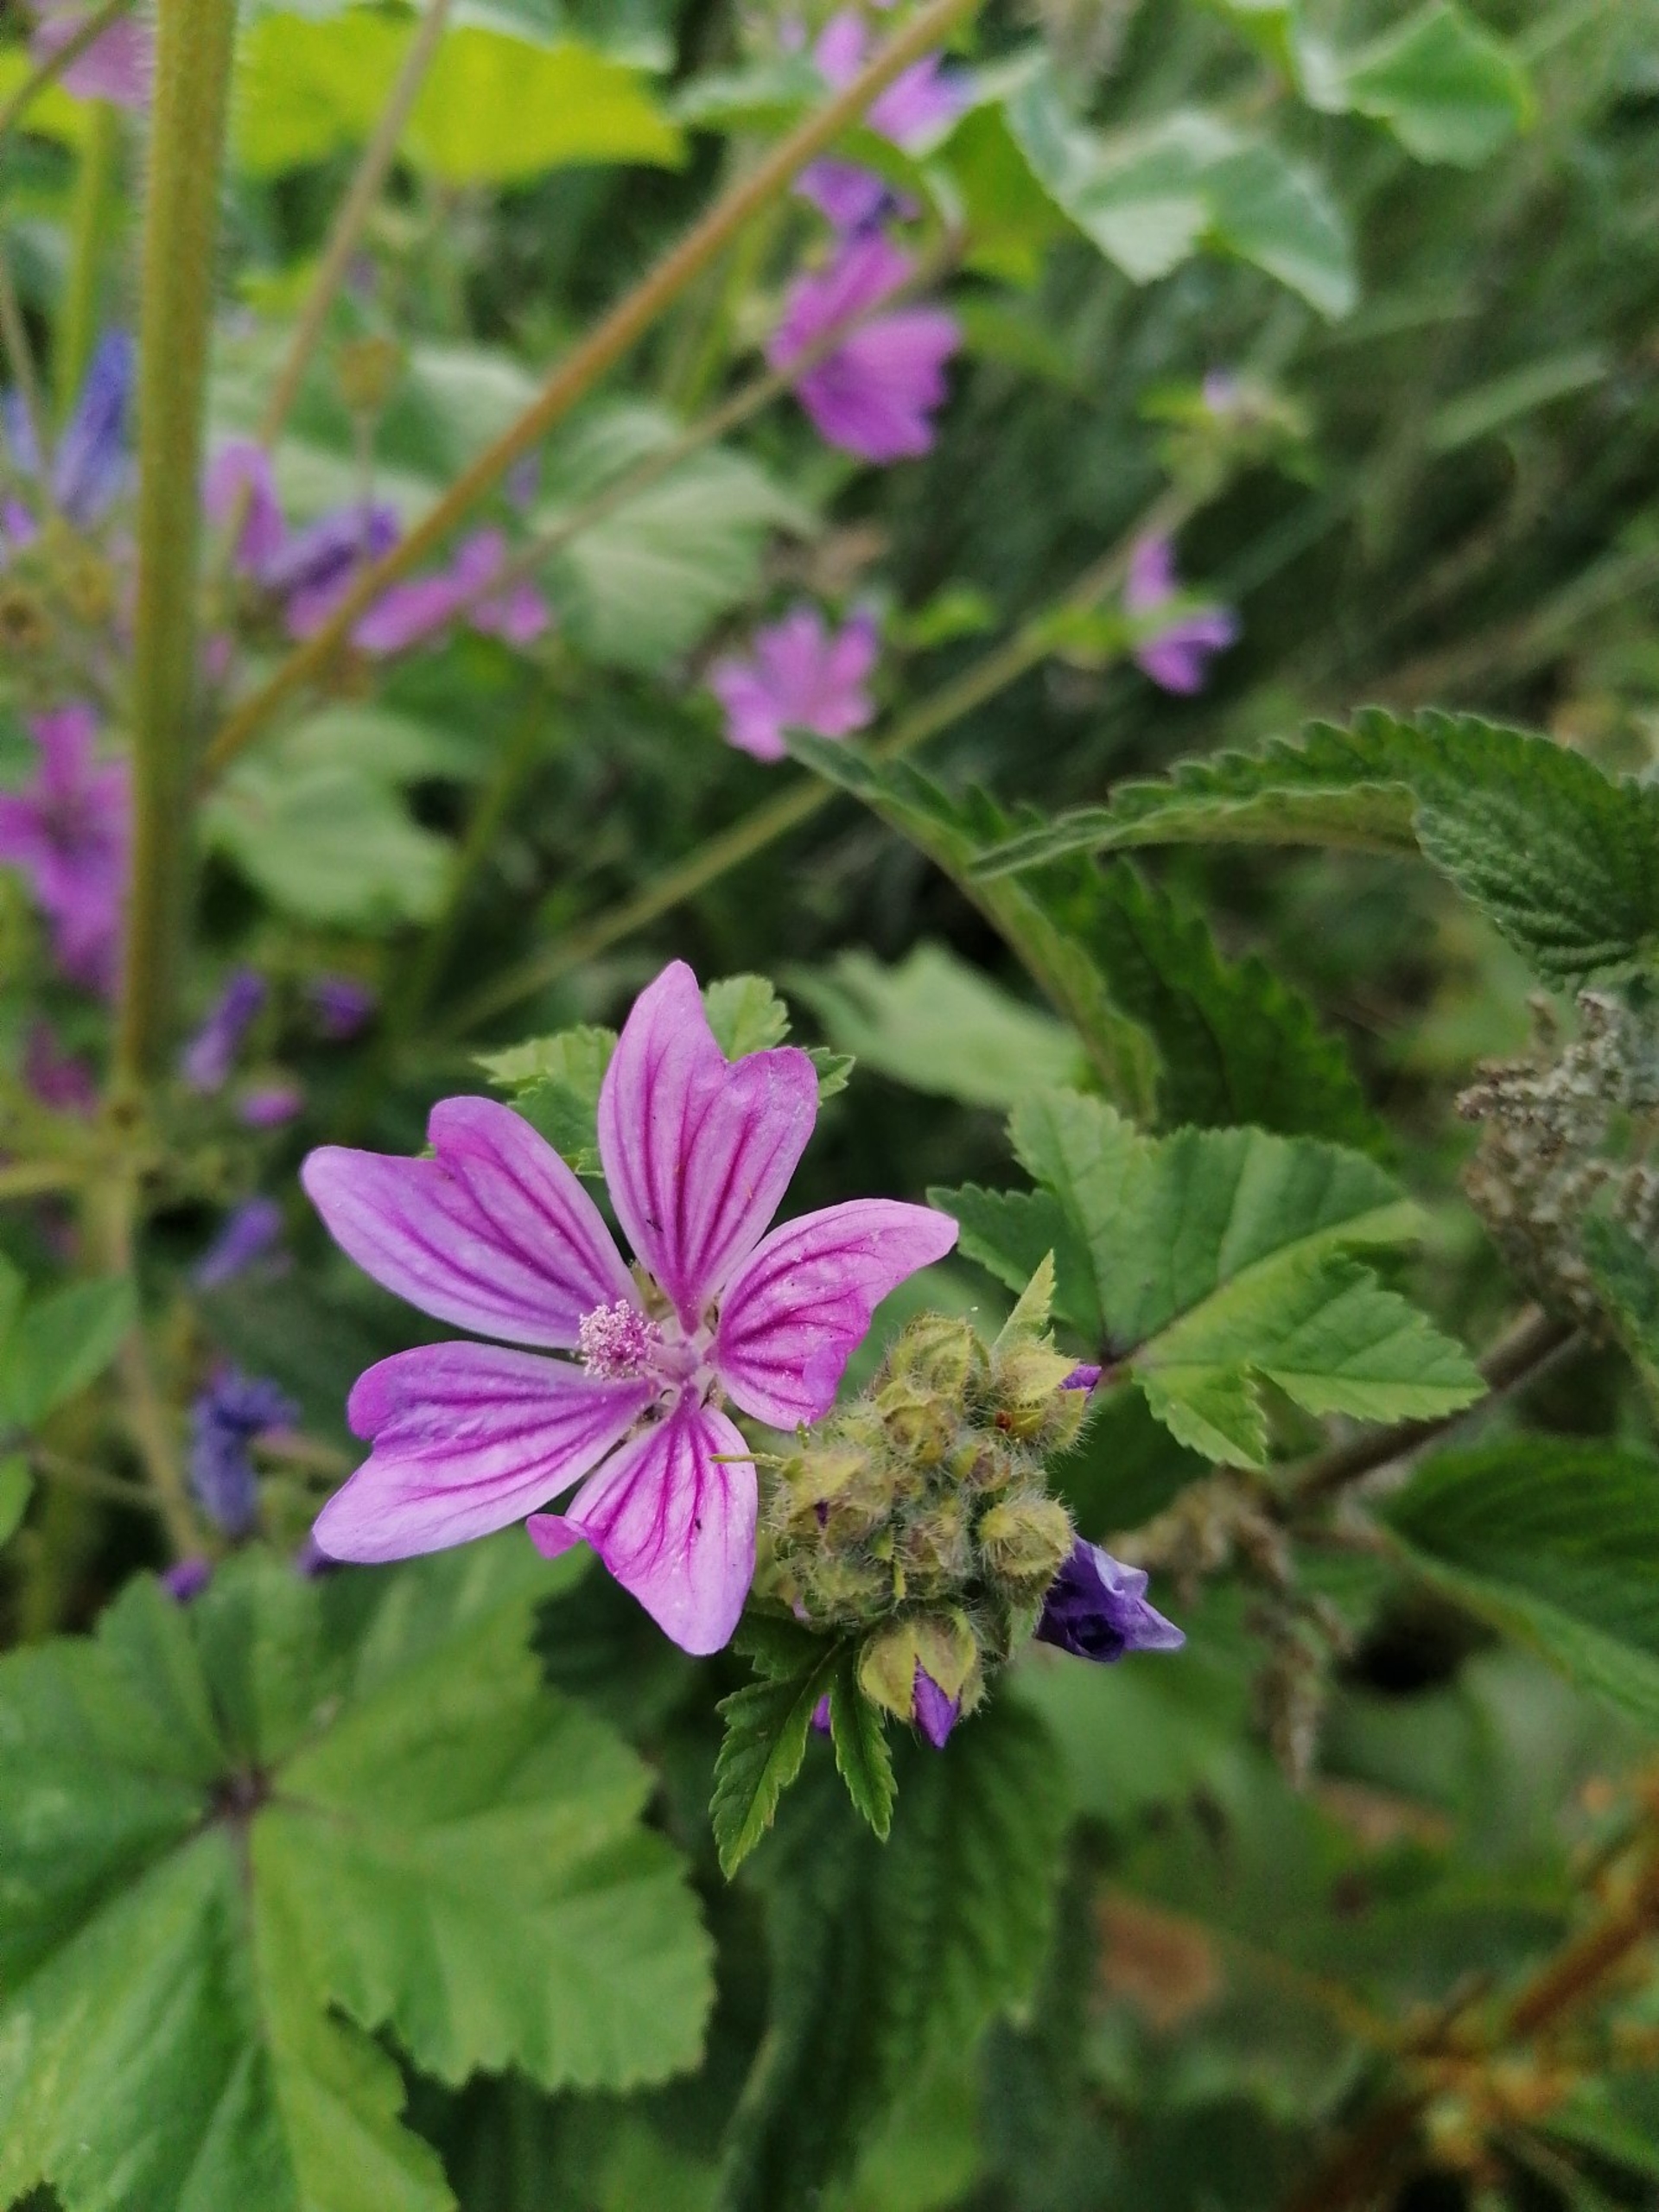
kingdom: Plantae
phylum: Tracheophyta
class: Magnoliopsida
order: Malvales
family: Malvaceae
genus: Malva
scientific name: Malva sylvestris
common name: Almindelig katost
